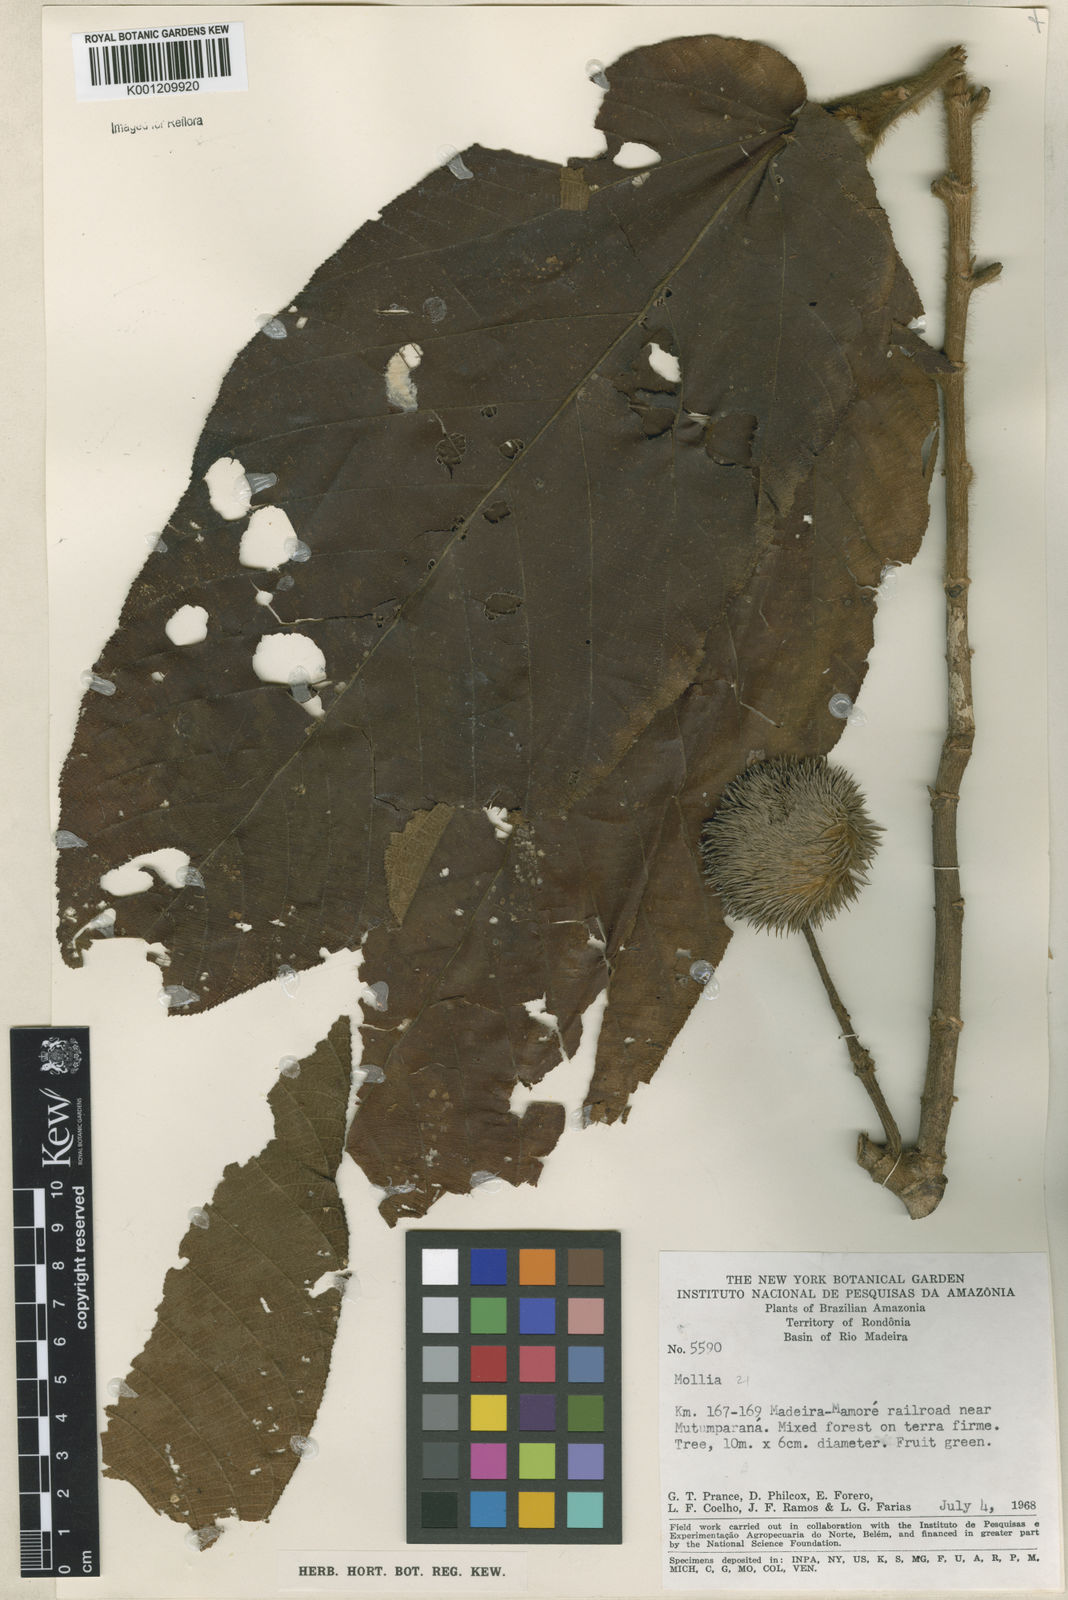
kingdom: Plantae
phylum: Tracheophyta
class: Magnoliopsida
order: Malvales
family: Malvaceae
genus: Apeiba
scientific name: Apeiba tibourbou
